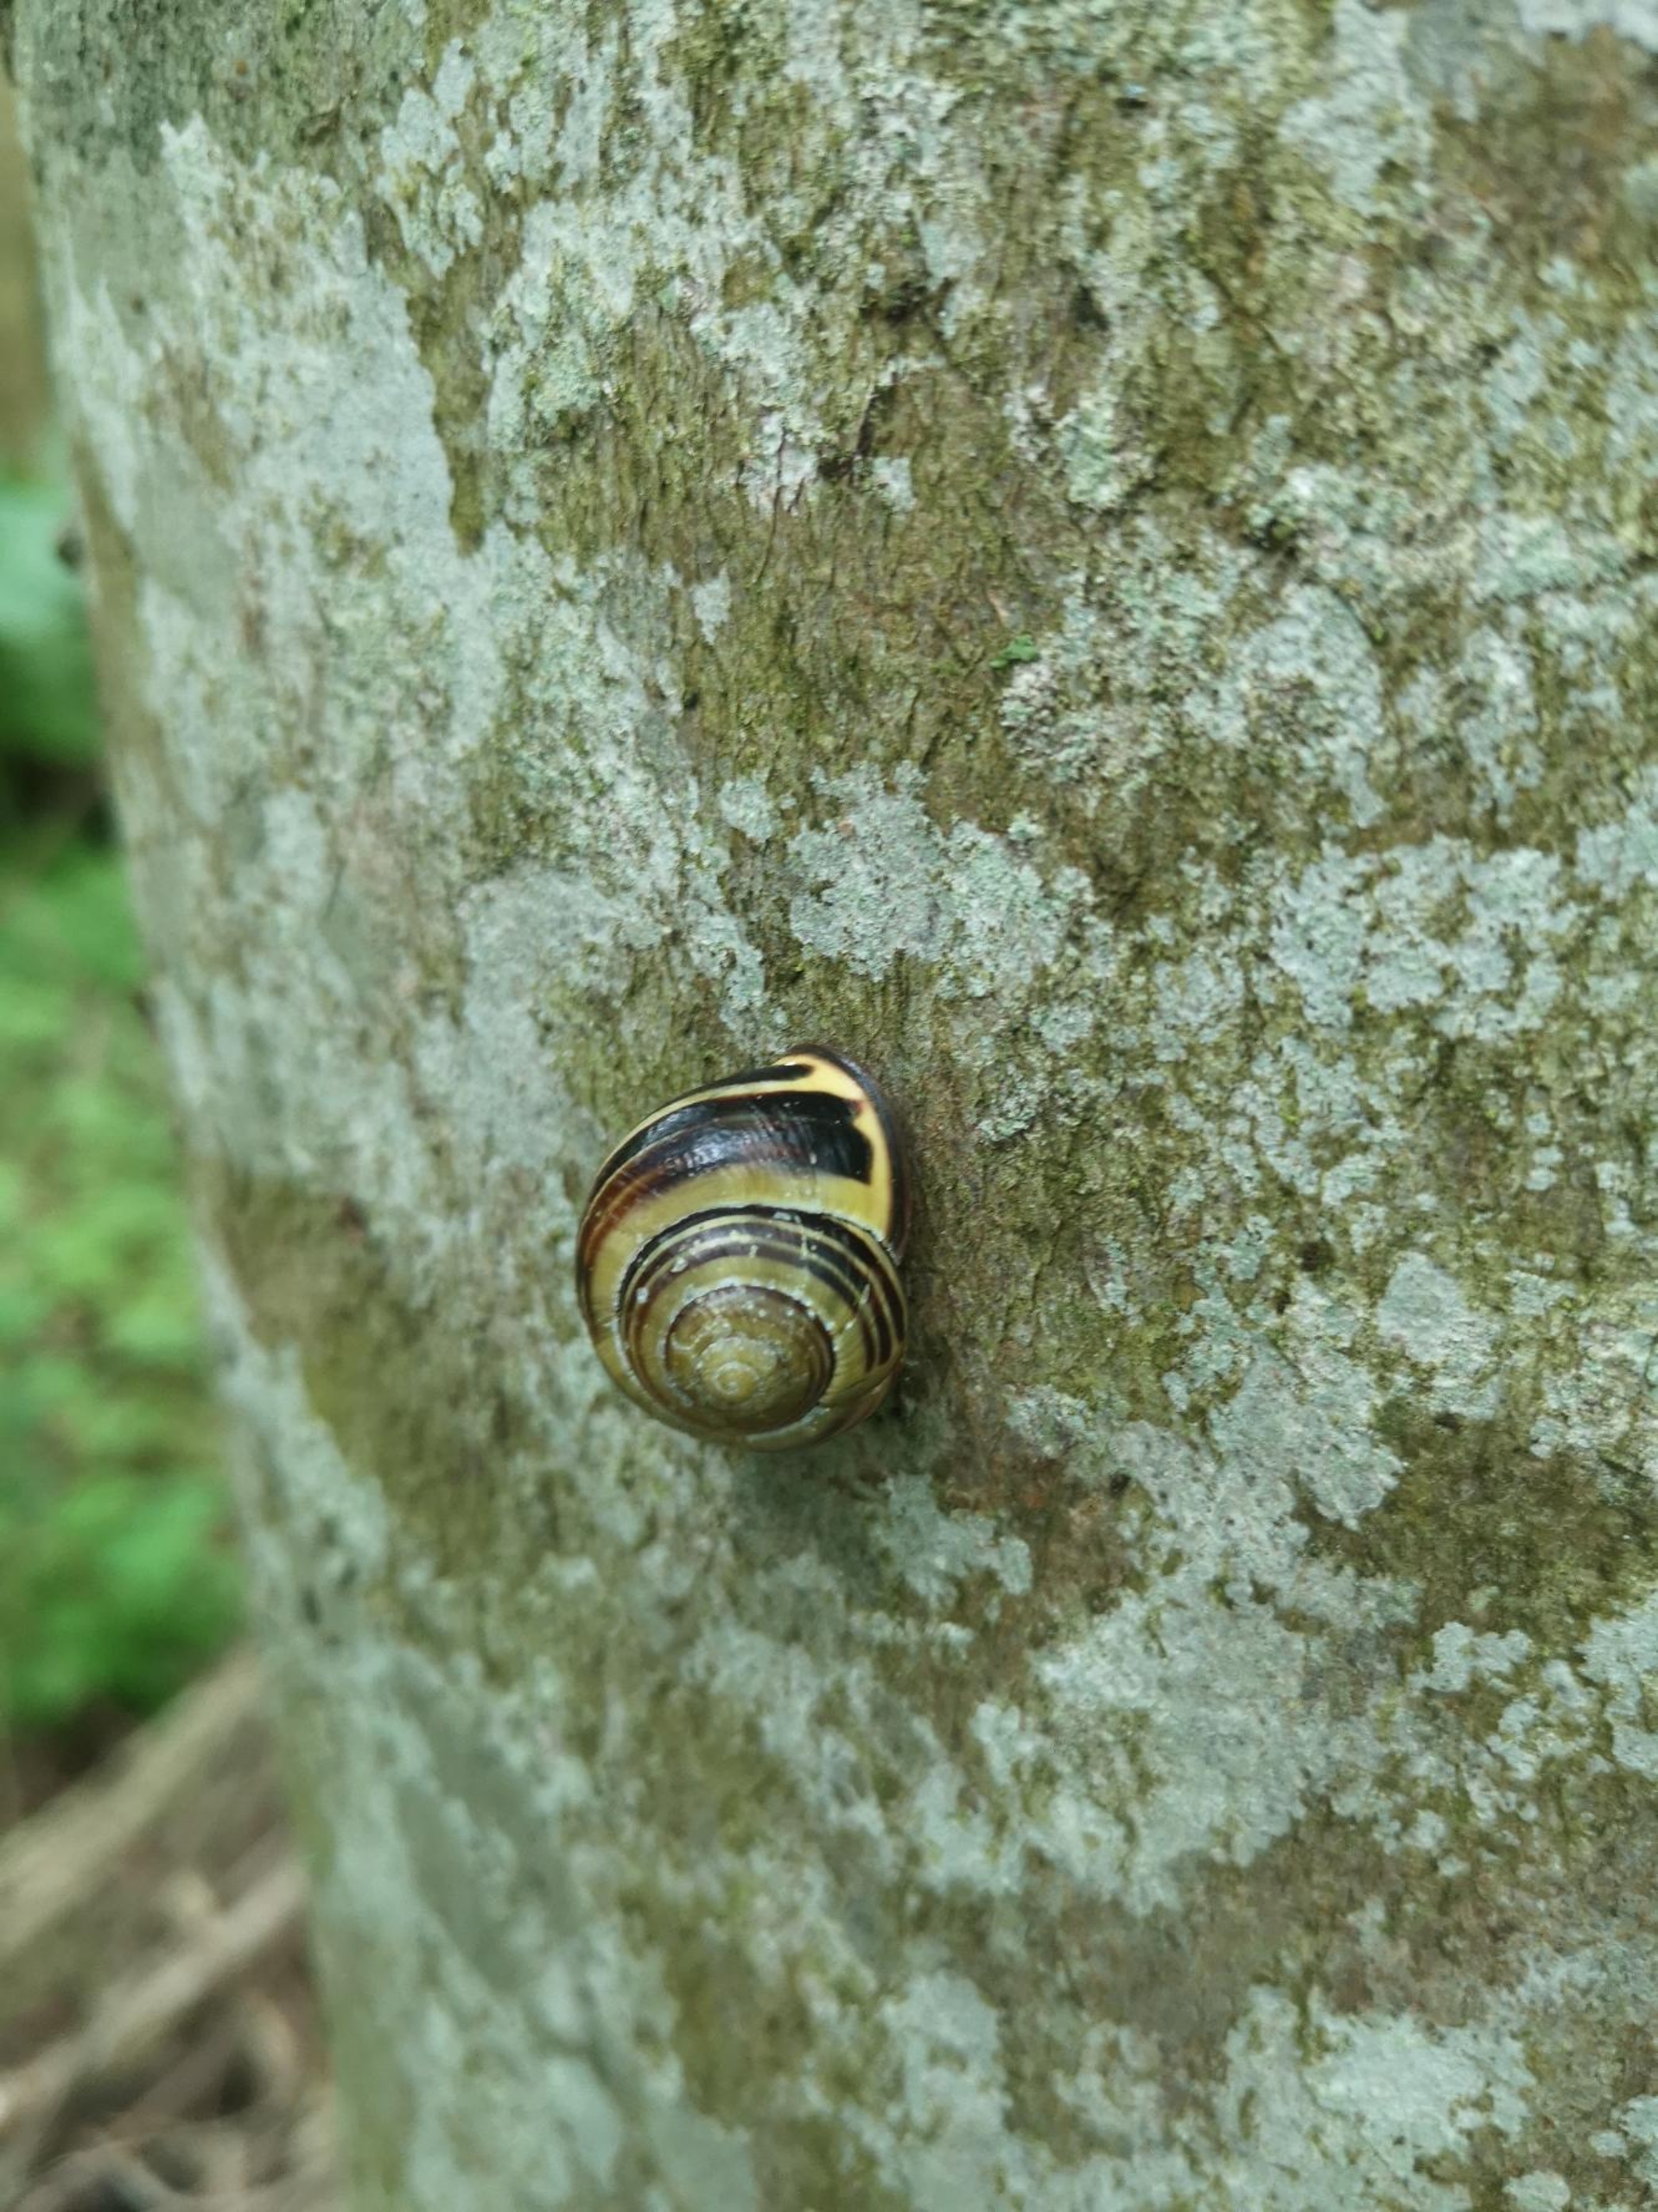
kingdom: Animalia
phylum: Mollusca
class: Gastropoda
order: Stylommatophora
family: Helicidae
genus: Cepaea
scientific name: Cepaea nemoralis
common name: Lundsnegl
